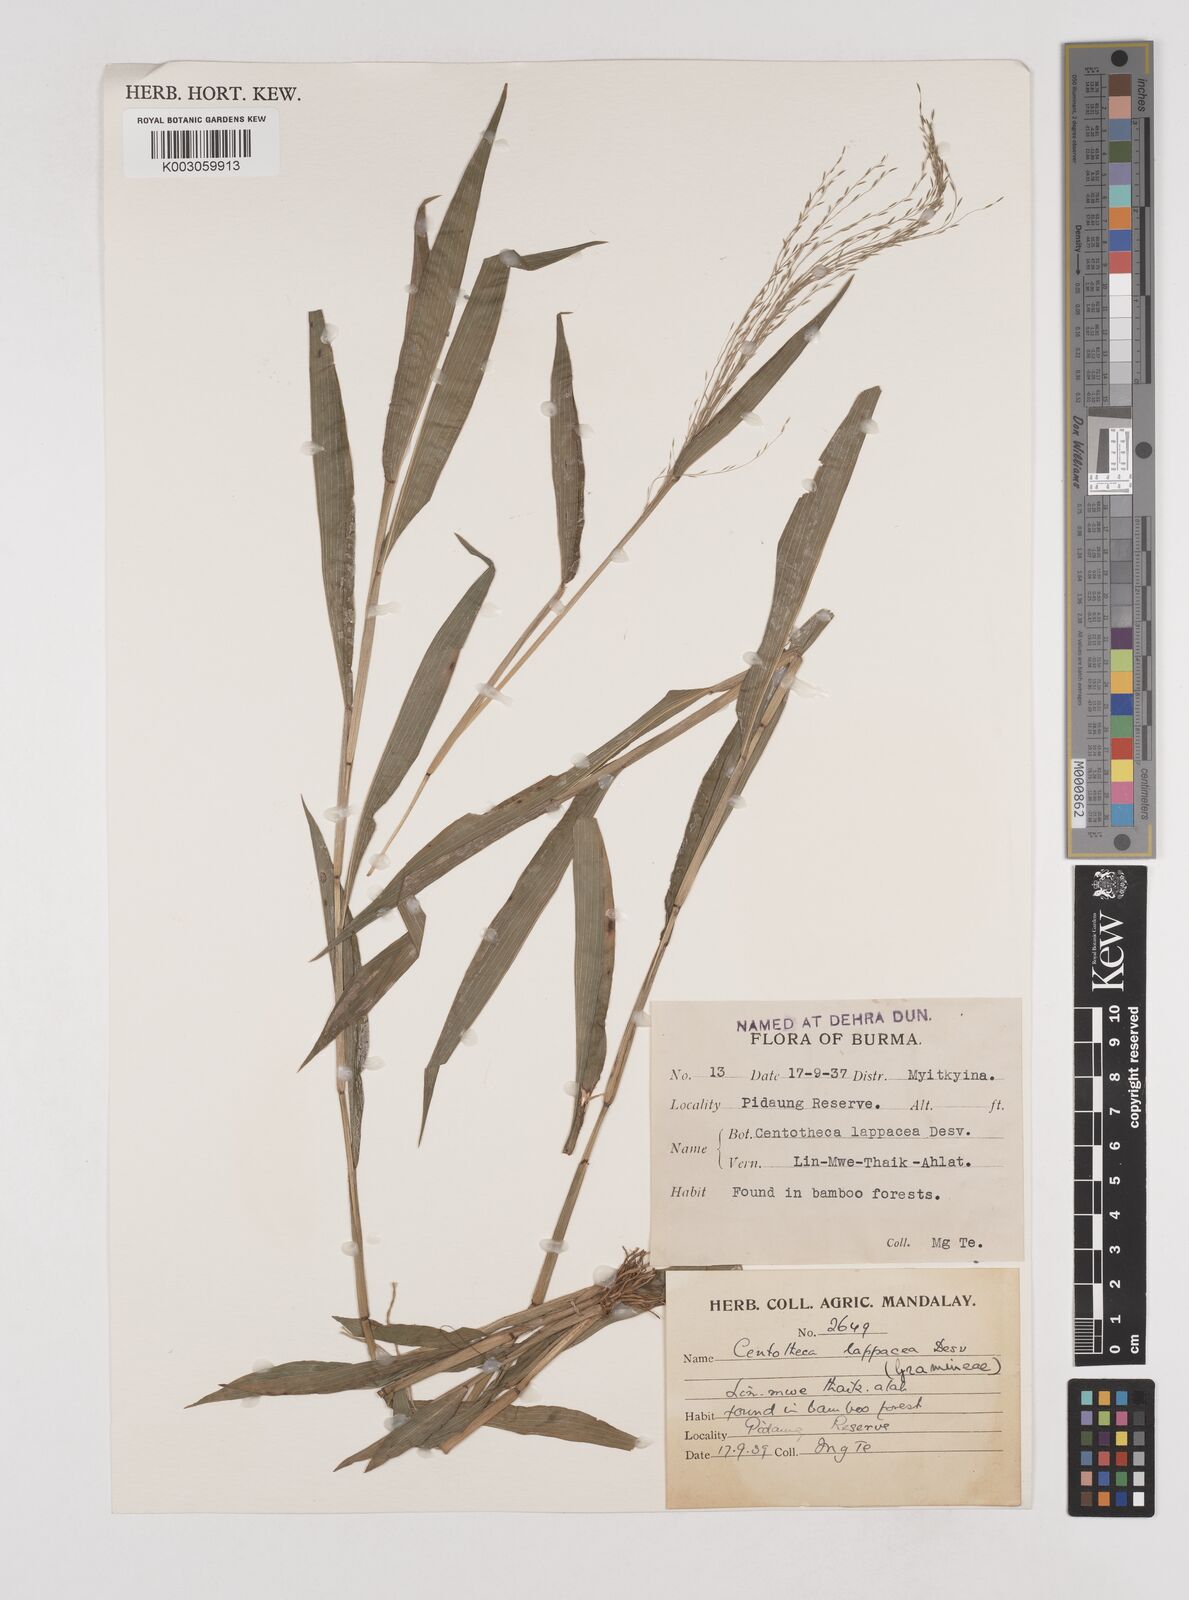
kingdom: Plantae
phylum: Tracheophyta
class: Liliopsida
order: Poales
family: Poaceae
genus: Centotheca
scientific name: Centotheca lappacea
